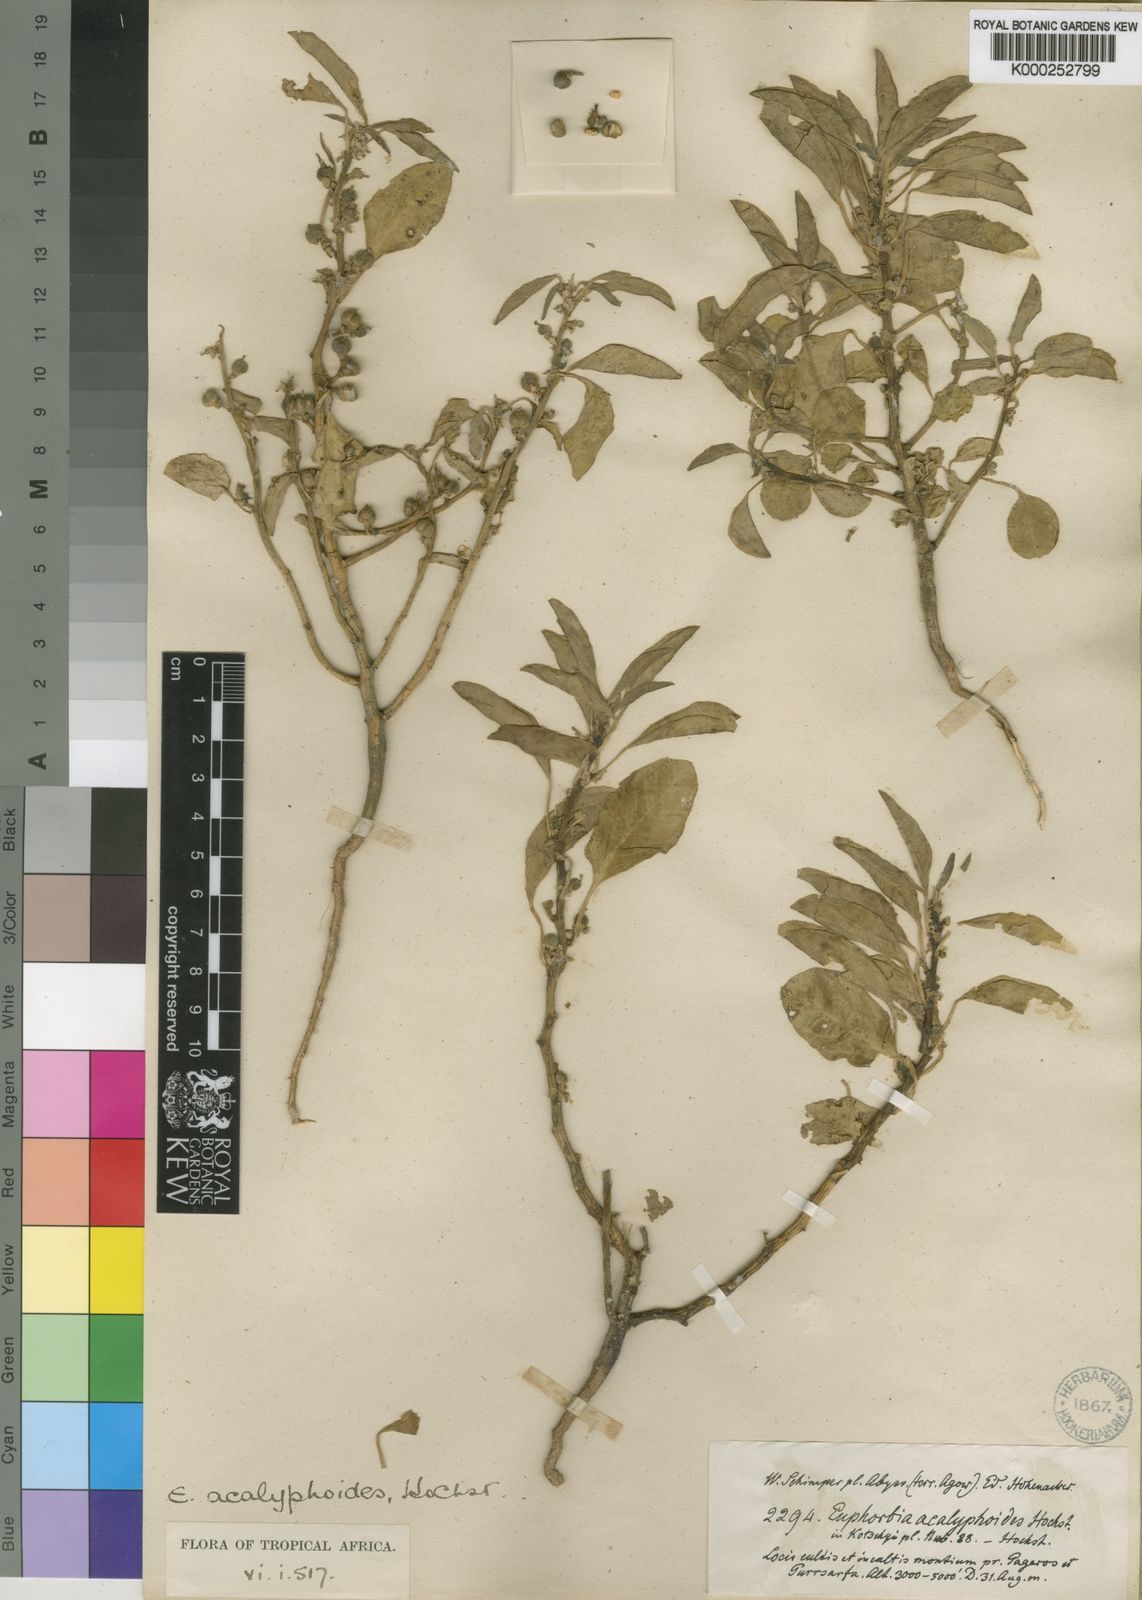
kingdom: Plantae
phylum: Tracheophyta
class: Magnoliopsida
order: Malpighiales
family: Euphorbiaceae
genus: Euphorbia
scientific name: Euphorbia acalyphoides
